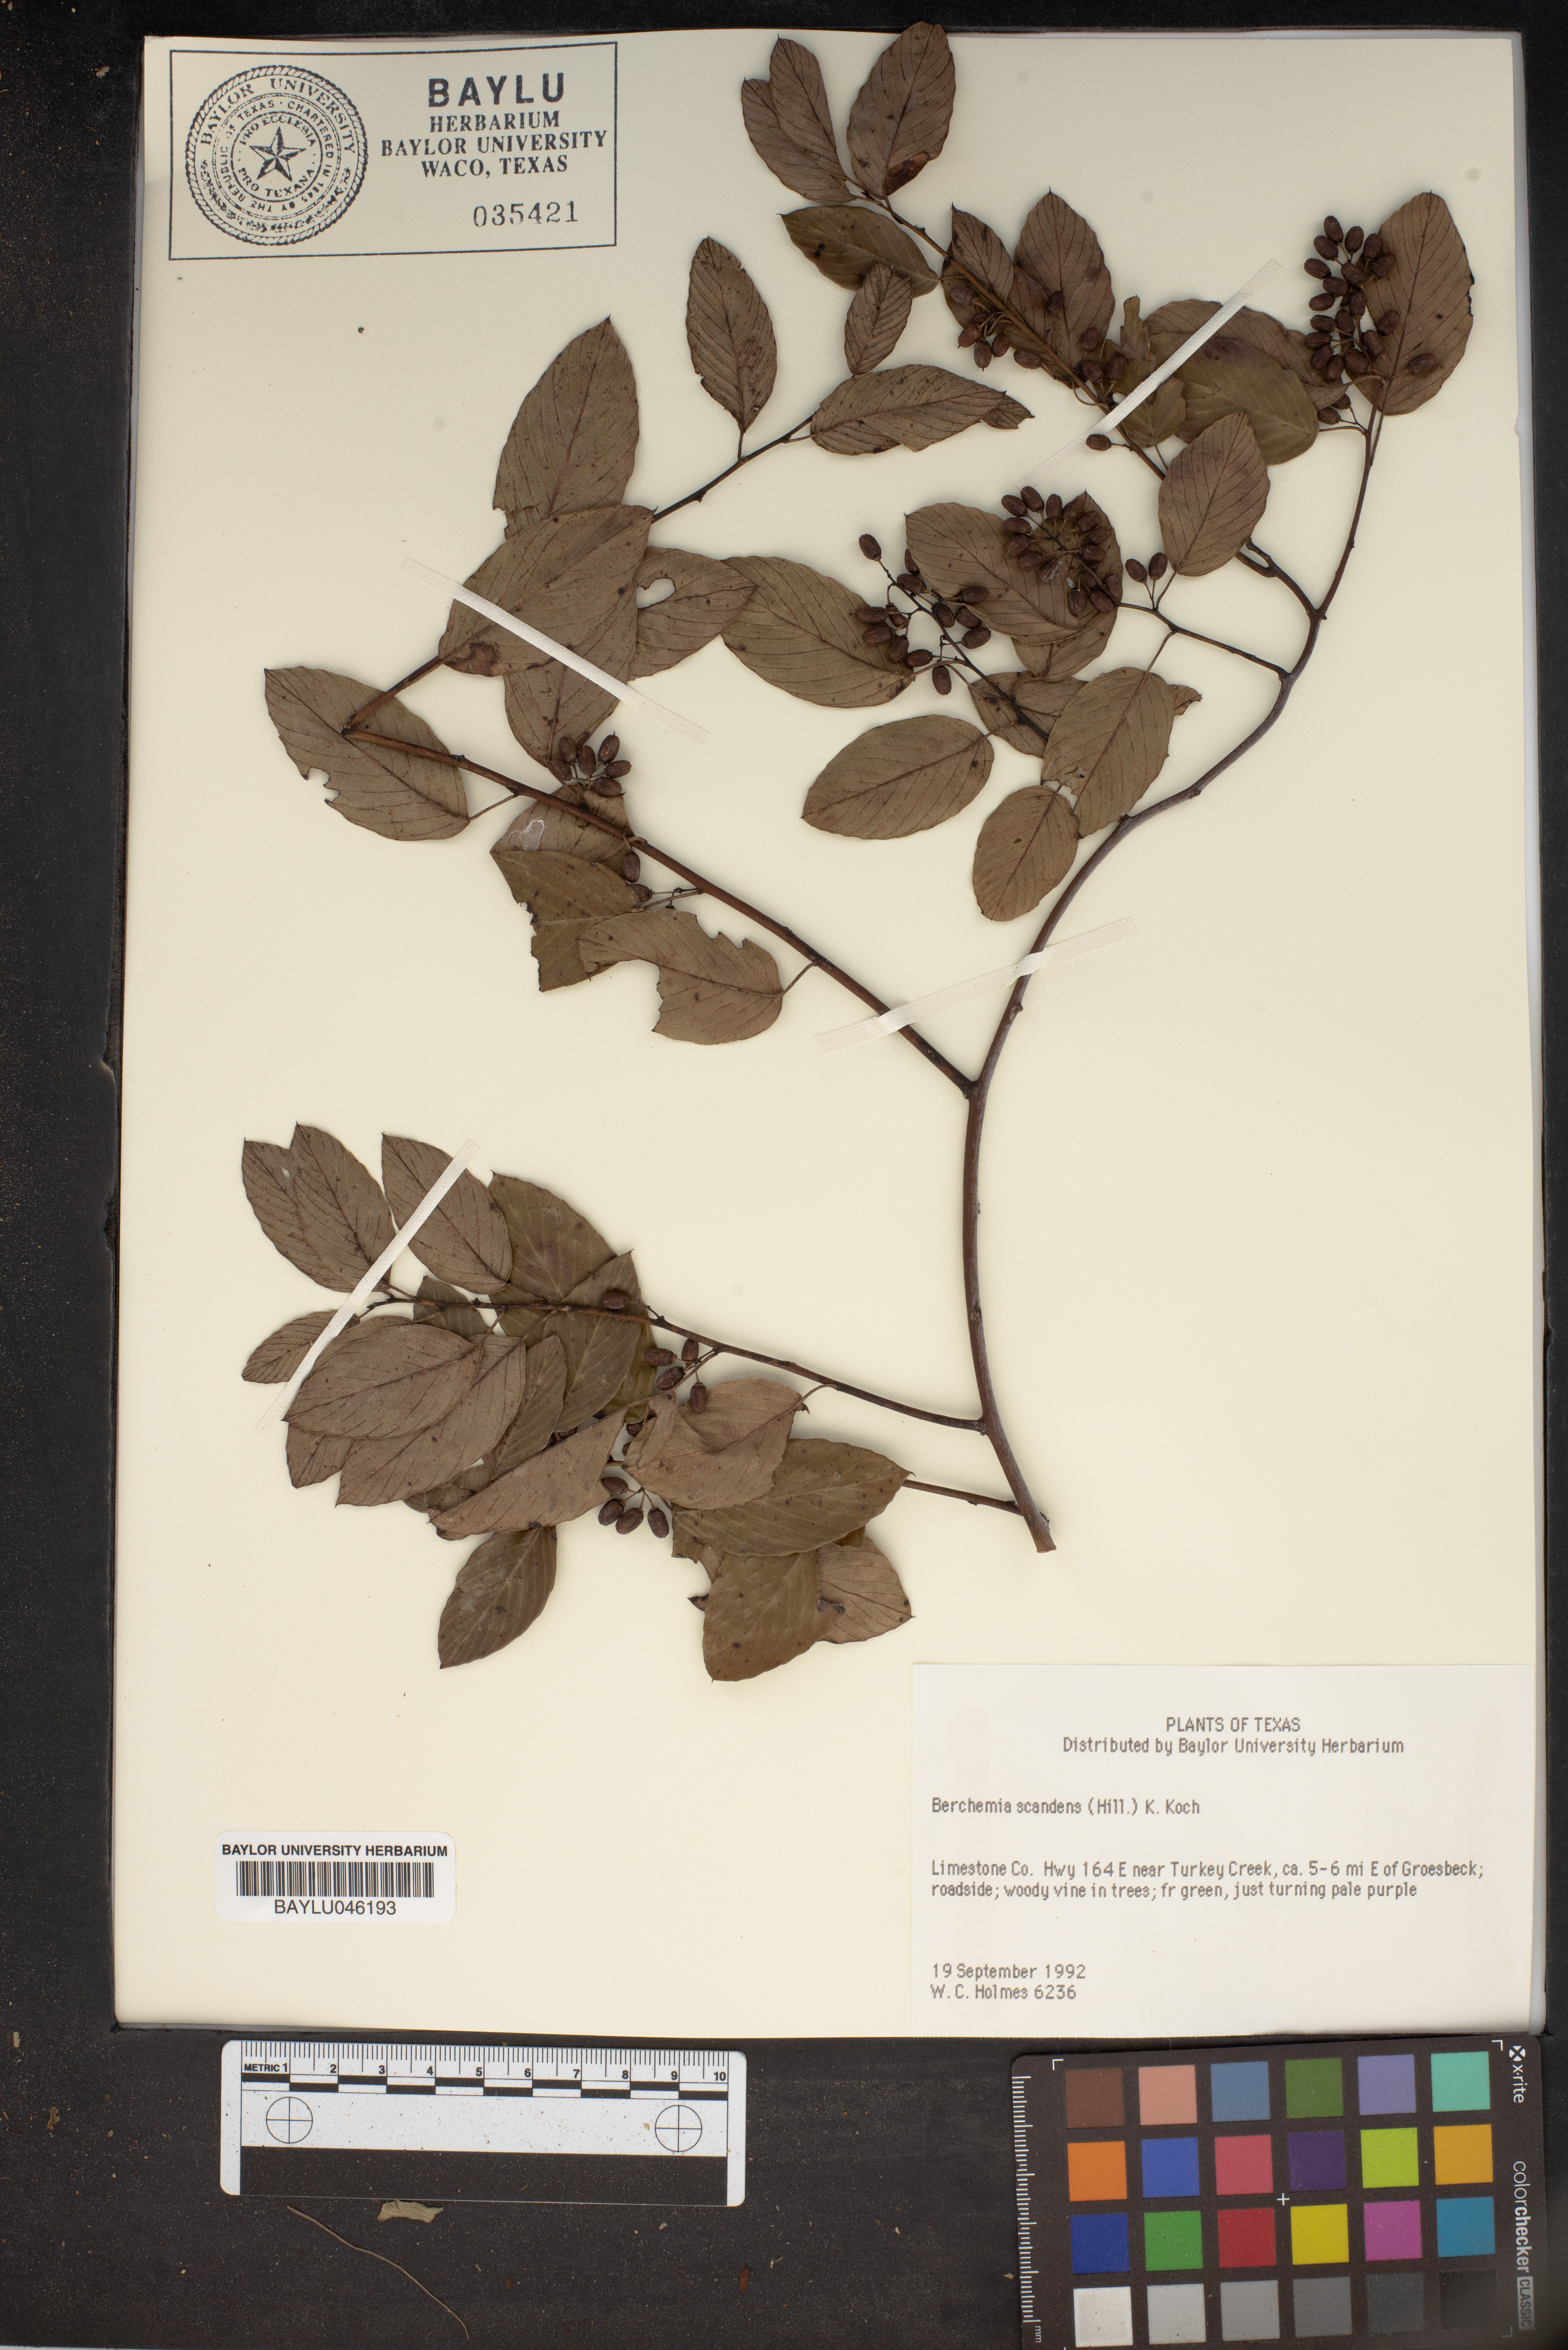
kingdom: Plantae
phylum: Tracheophyta
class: Magnoliopsida
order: Rosales
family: Rhamnaceae
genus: Berchemia
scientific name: Berchemia scandens
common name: Supplejack
